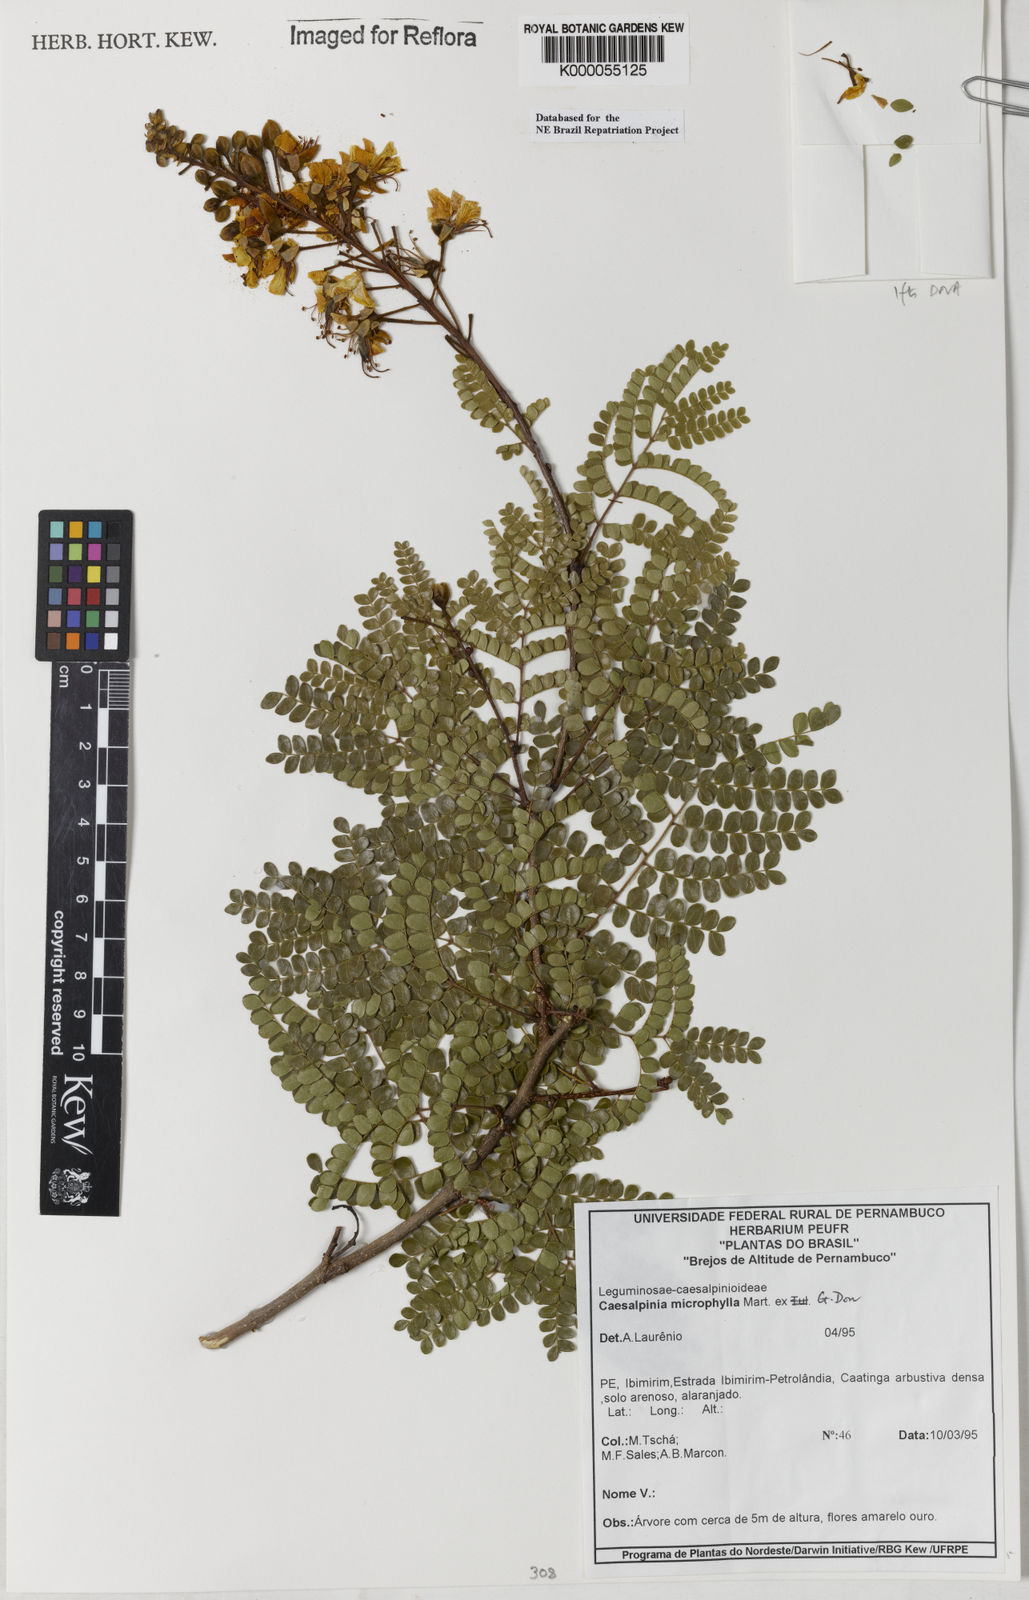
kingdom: Plantae
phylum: Tracheophyta
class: Magnoliopsida
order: Fabales
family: Fabaceae
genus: Cenostigma
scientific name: Cenostigma microphyllum
